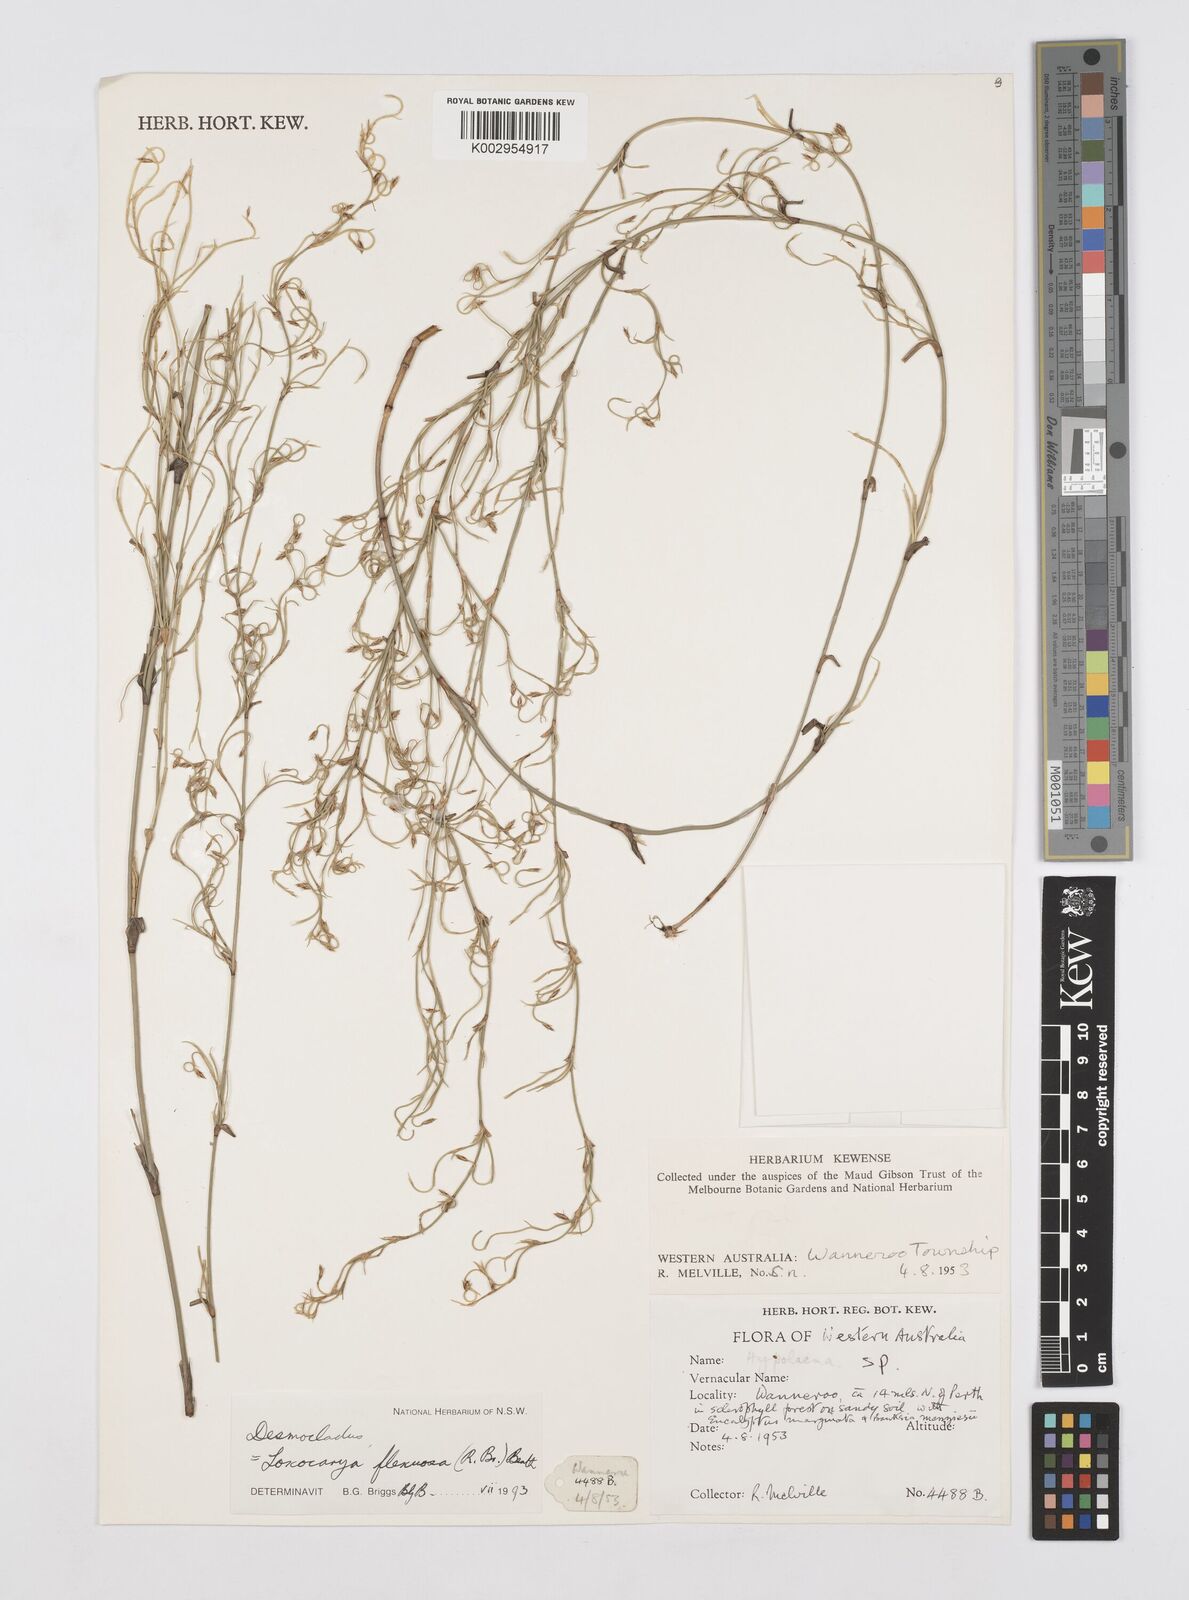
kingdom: Plantae
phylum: Tracheophyta
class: Liliopsida
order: Poales
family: Restionaceae
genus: Desmocladus
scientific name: Desmocladus flexuosus
